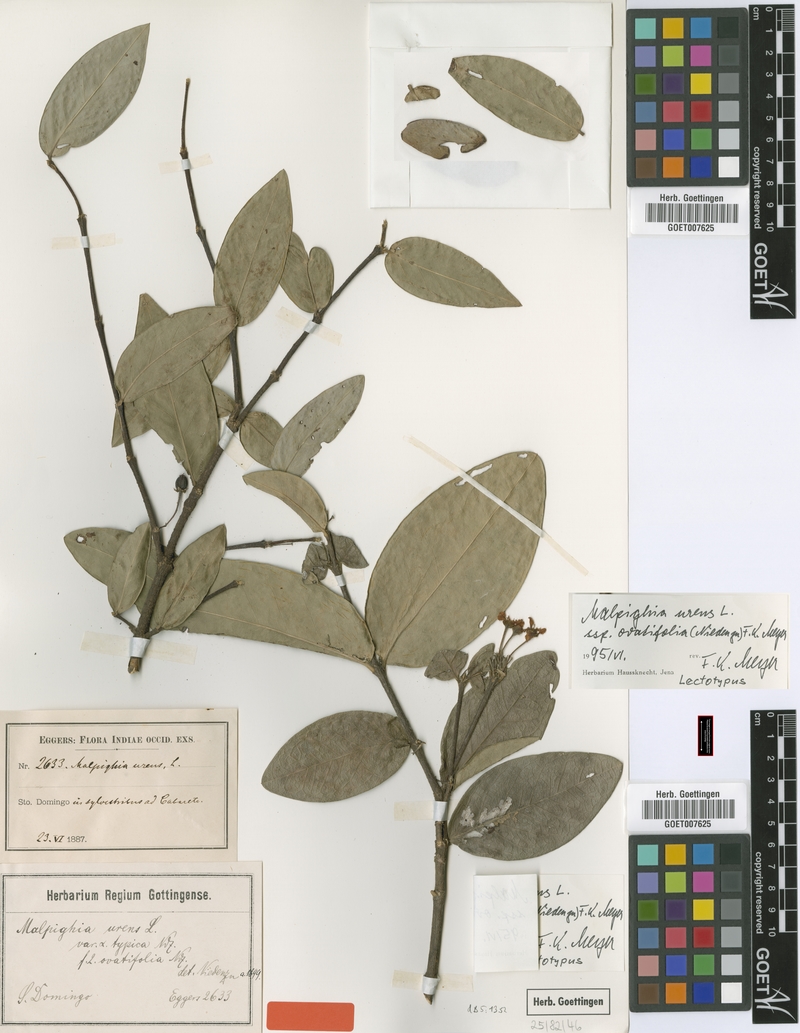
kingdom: Plantae
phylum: Tracheophyta
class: Magnoliopsida
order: Malpighiales
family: Malpighiaceae
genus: Malpighia
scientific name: Malpighia urens
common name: Cow-itch-cherry
